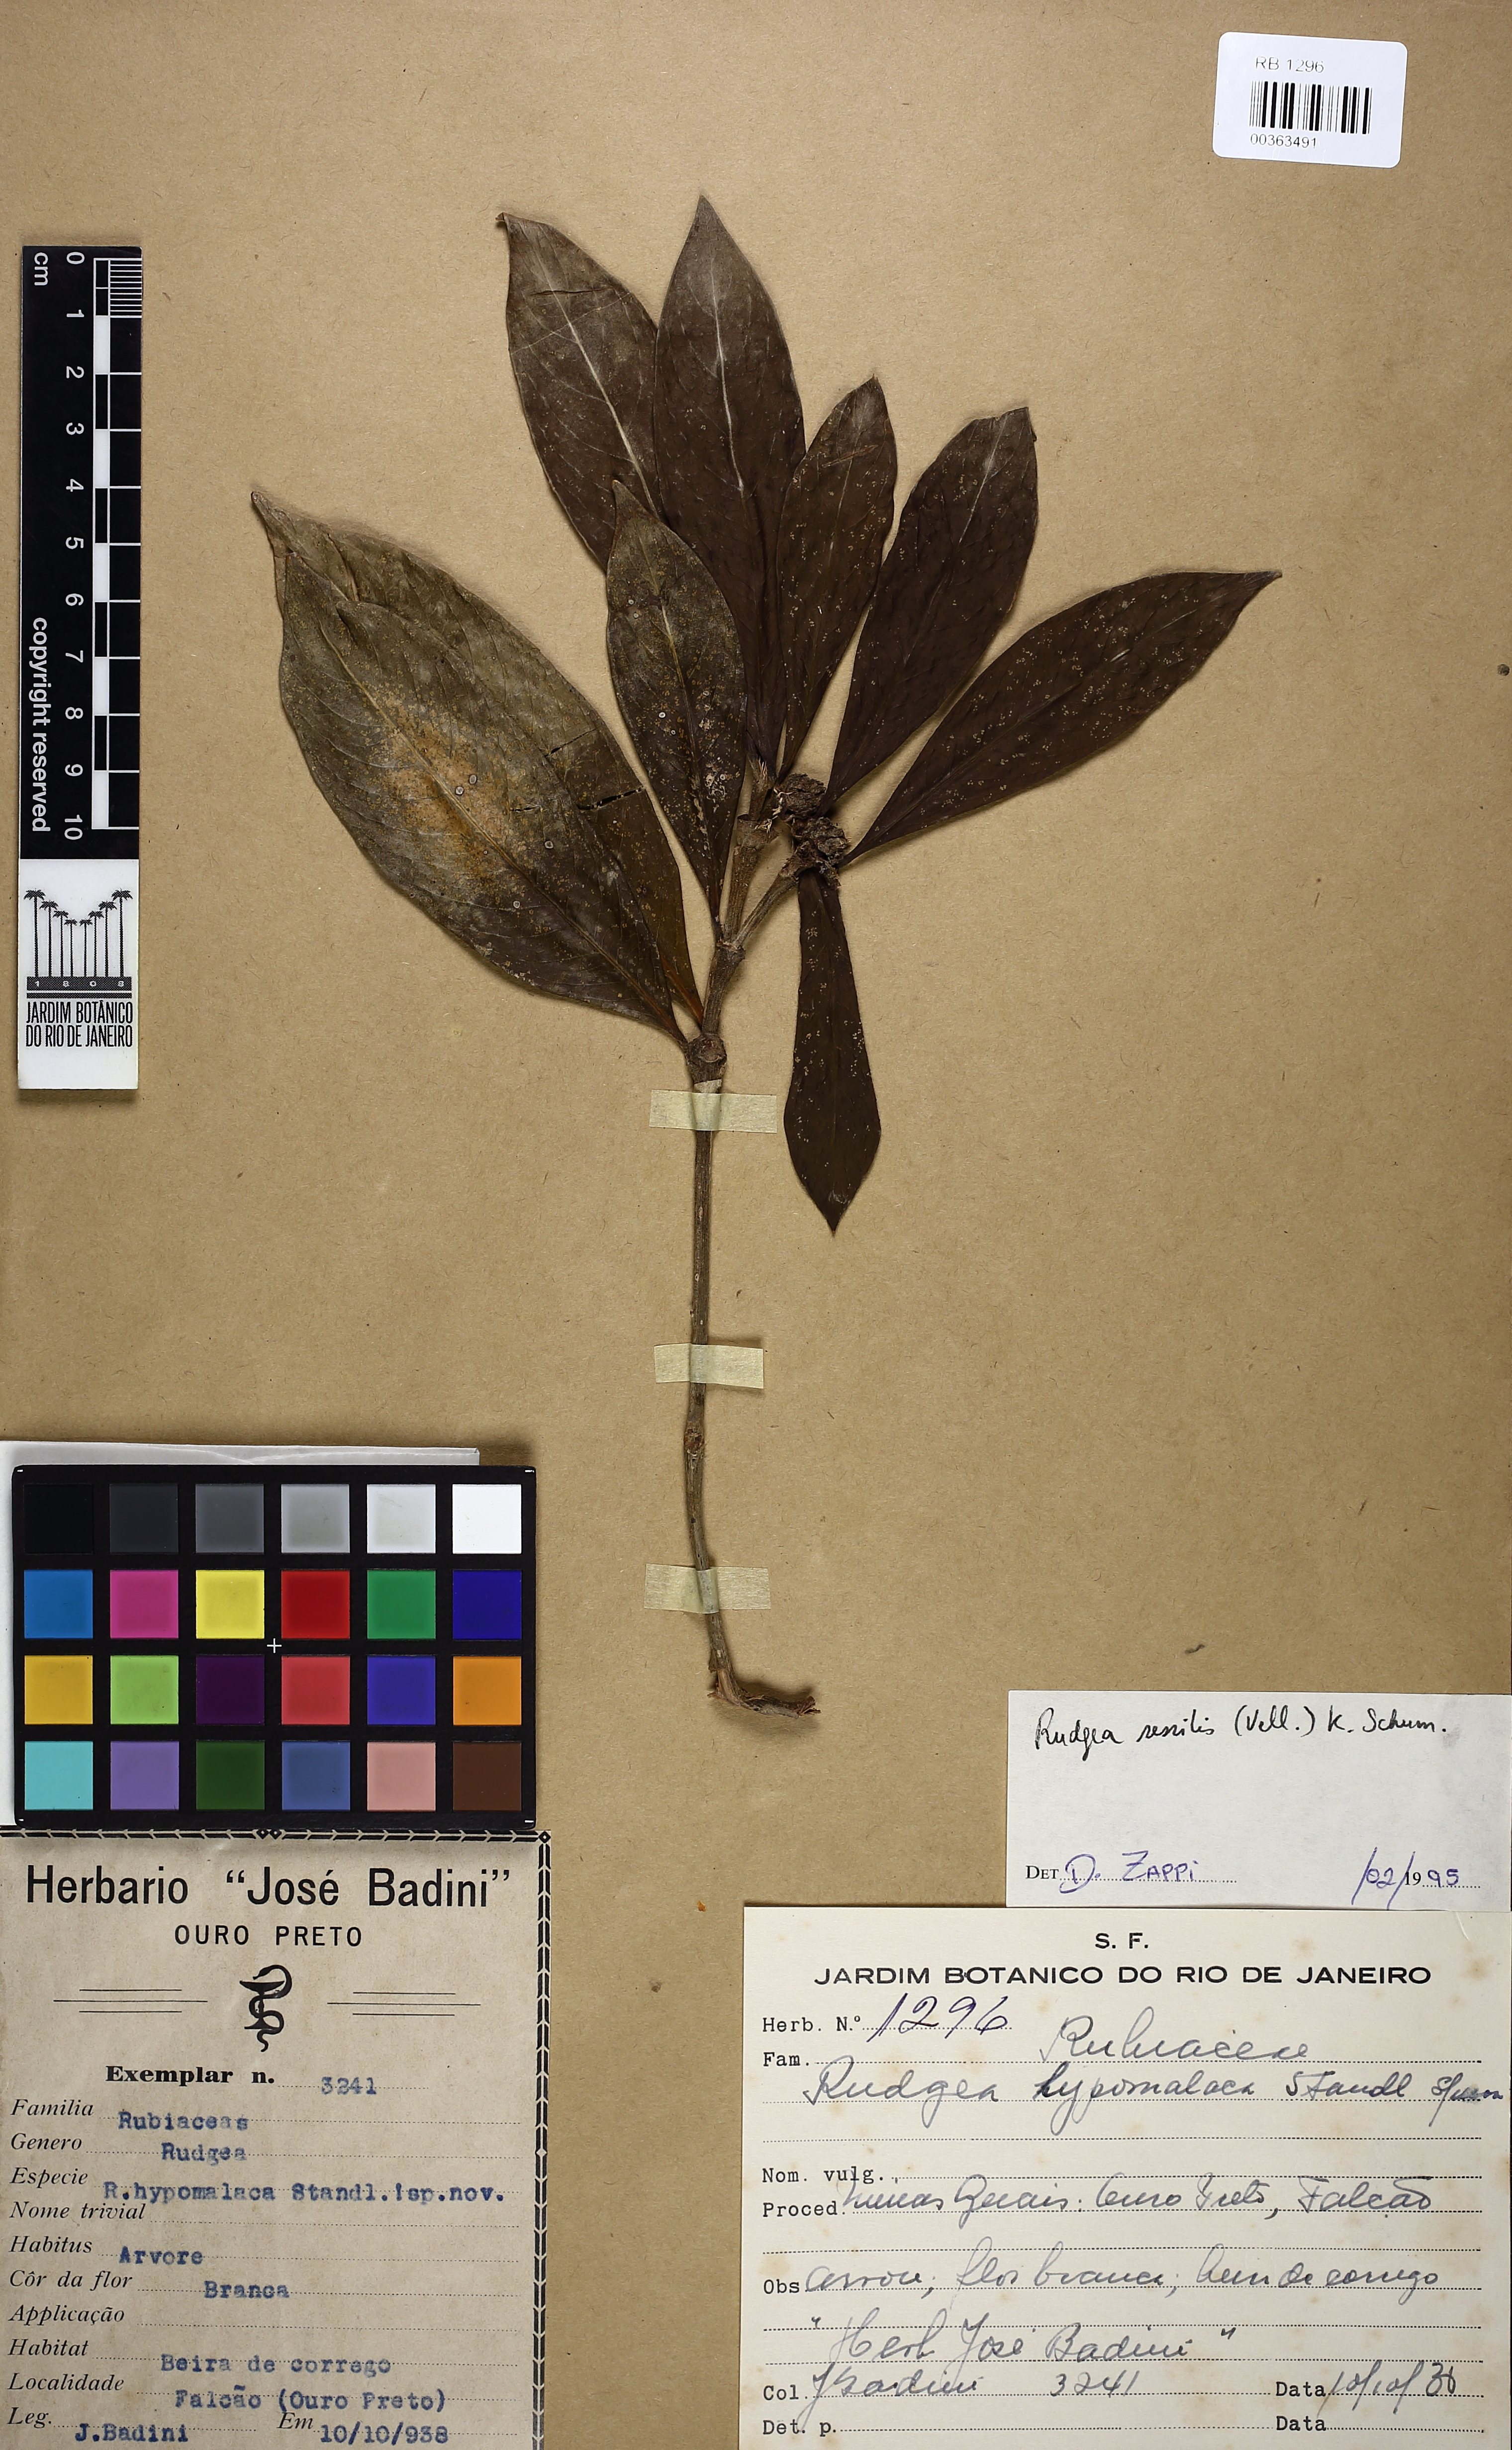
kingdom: Plantae
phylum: Tracheophyta
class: Magnoliopsida
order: Gentianales
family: Rubiaceae
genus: Rudgea
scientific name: Rudgea sessilis
